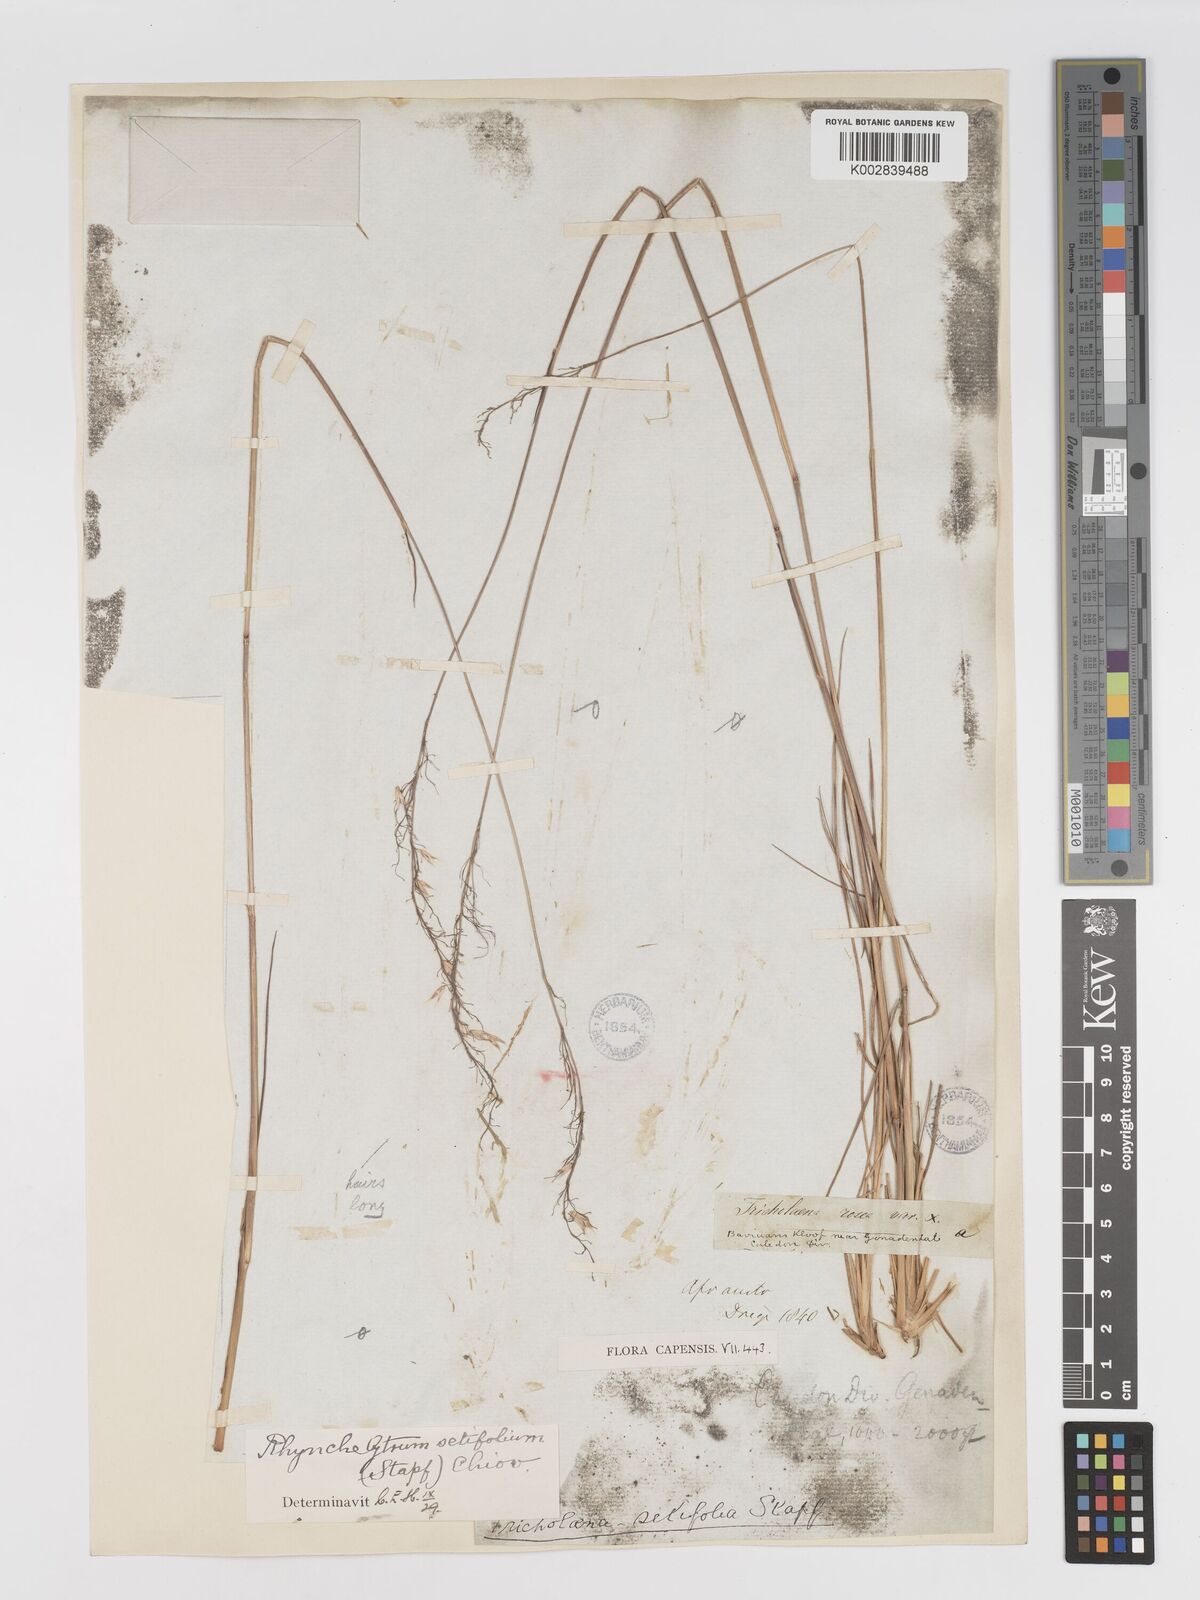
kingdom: Plantae
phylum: Tracheophyta
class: Liliopsida
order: Poales
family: Poaceae
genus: Melinis
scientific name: Melinis nerviglumis
